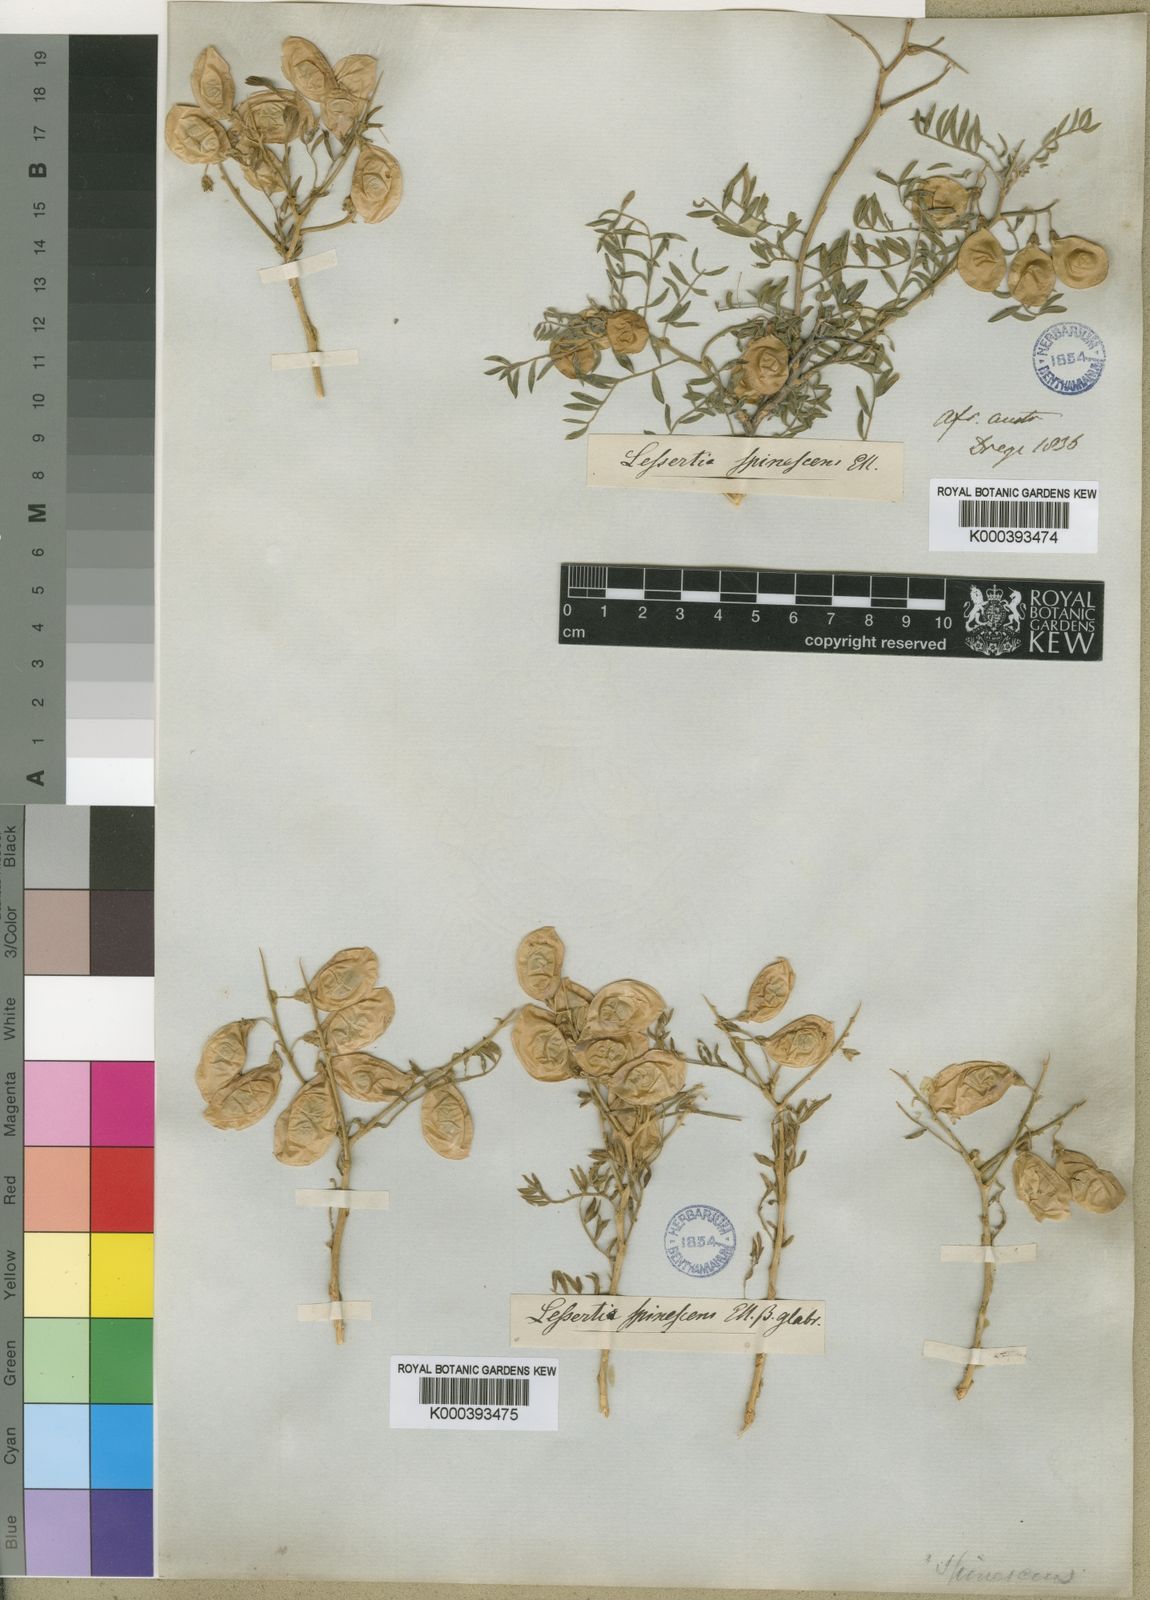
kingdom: Plantae
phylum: Tracheophyta
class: Magnoliopsida
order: Fabales
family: Fabaceae
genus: Lessertia
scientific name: Lessertia spinescens
